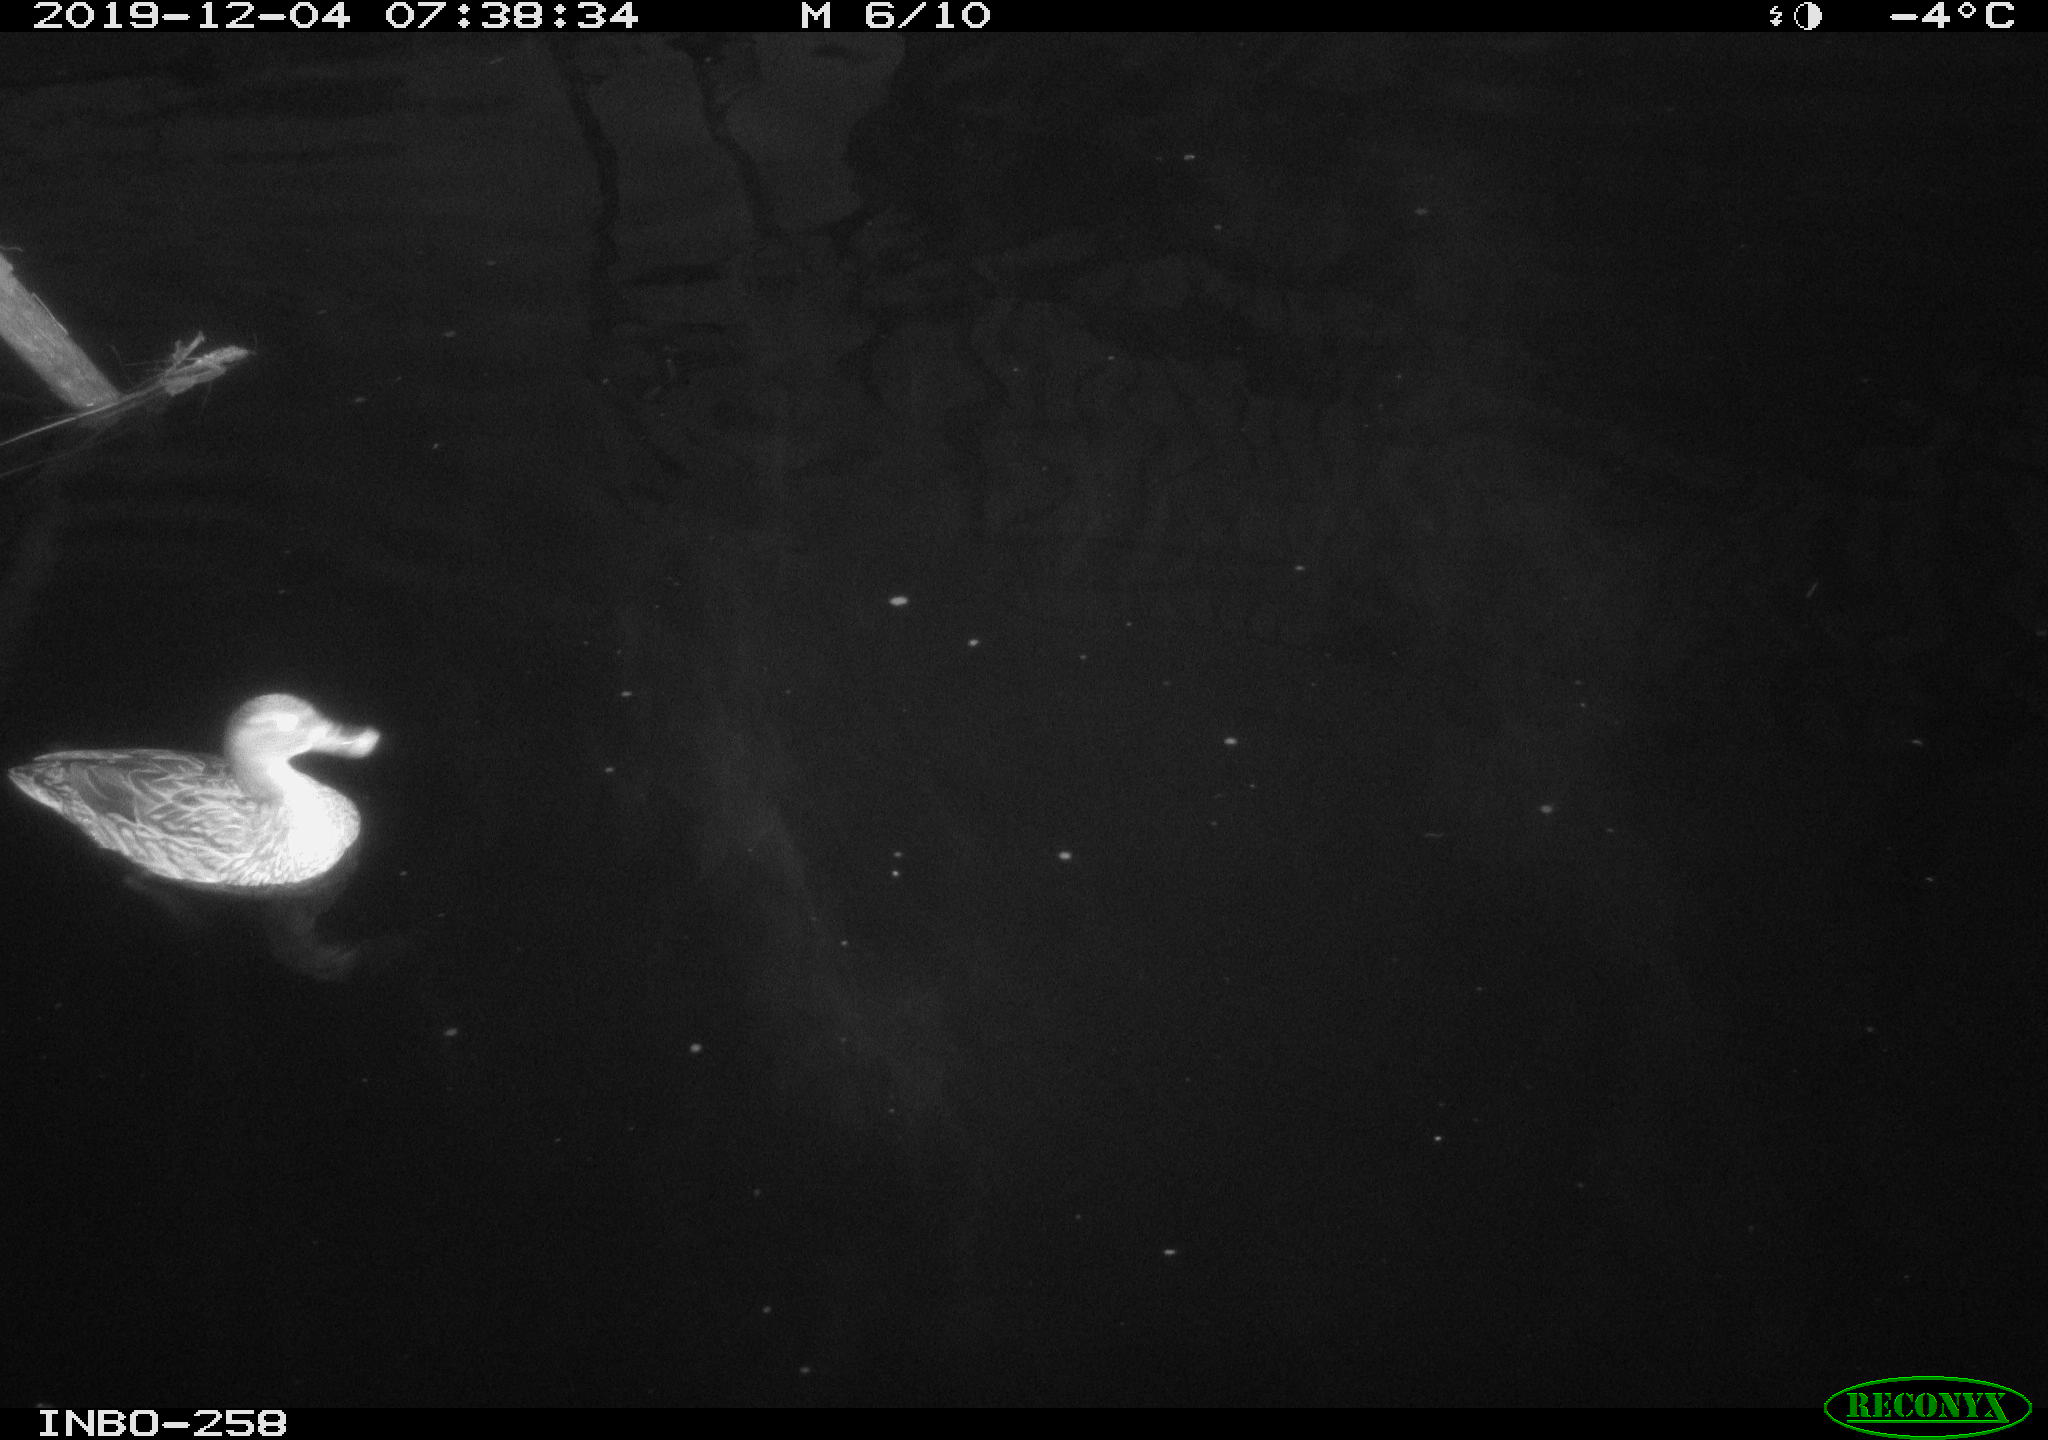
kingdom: Animalia
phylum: Chordata
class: Aves
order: Gruiformes
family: Rallidae
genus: Gallinula
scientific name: Gallinula chloropus
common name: Common moorhen
